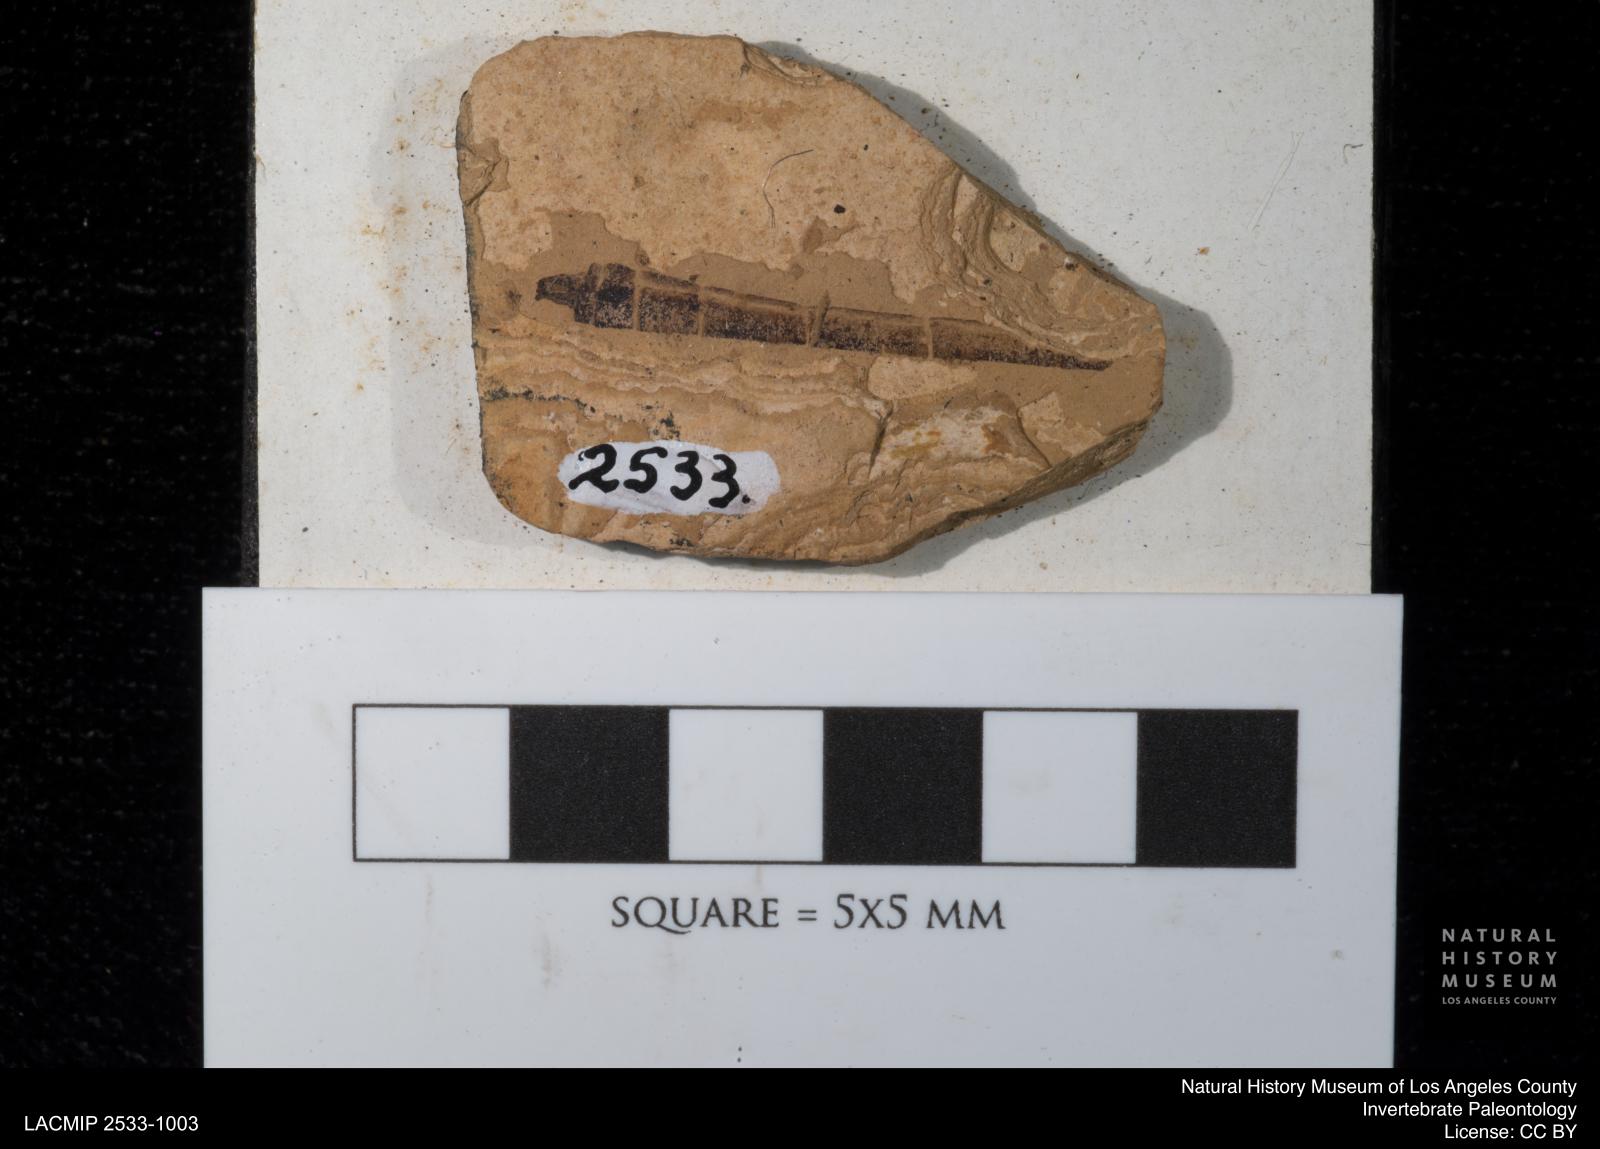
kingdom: Animalia
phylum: Arthropoda
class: Insecta
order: Odonata
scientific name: Odonata
